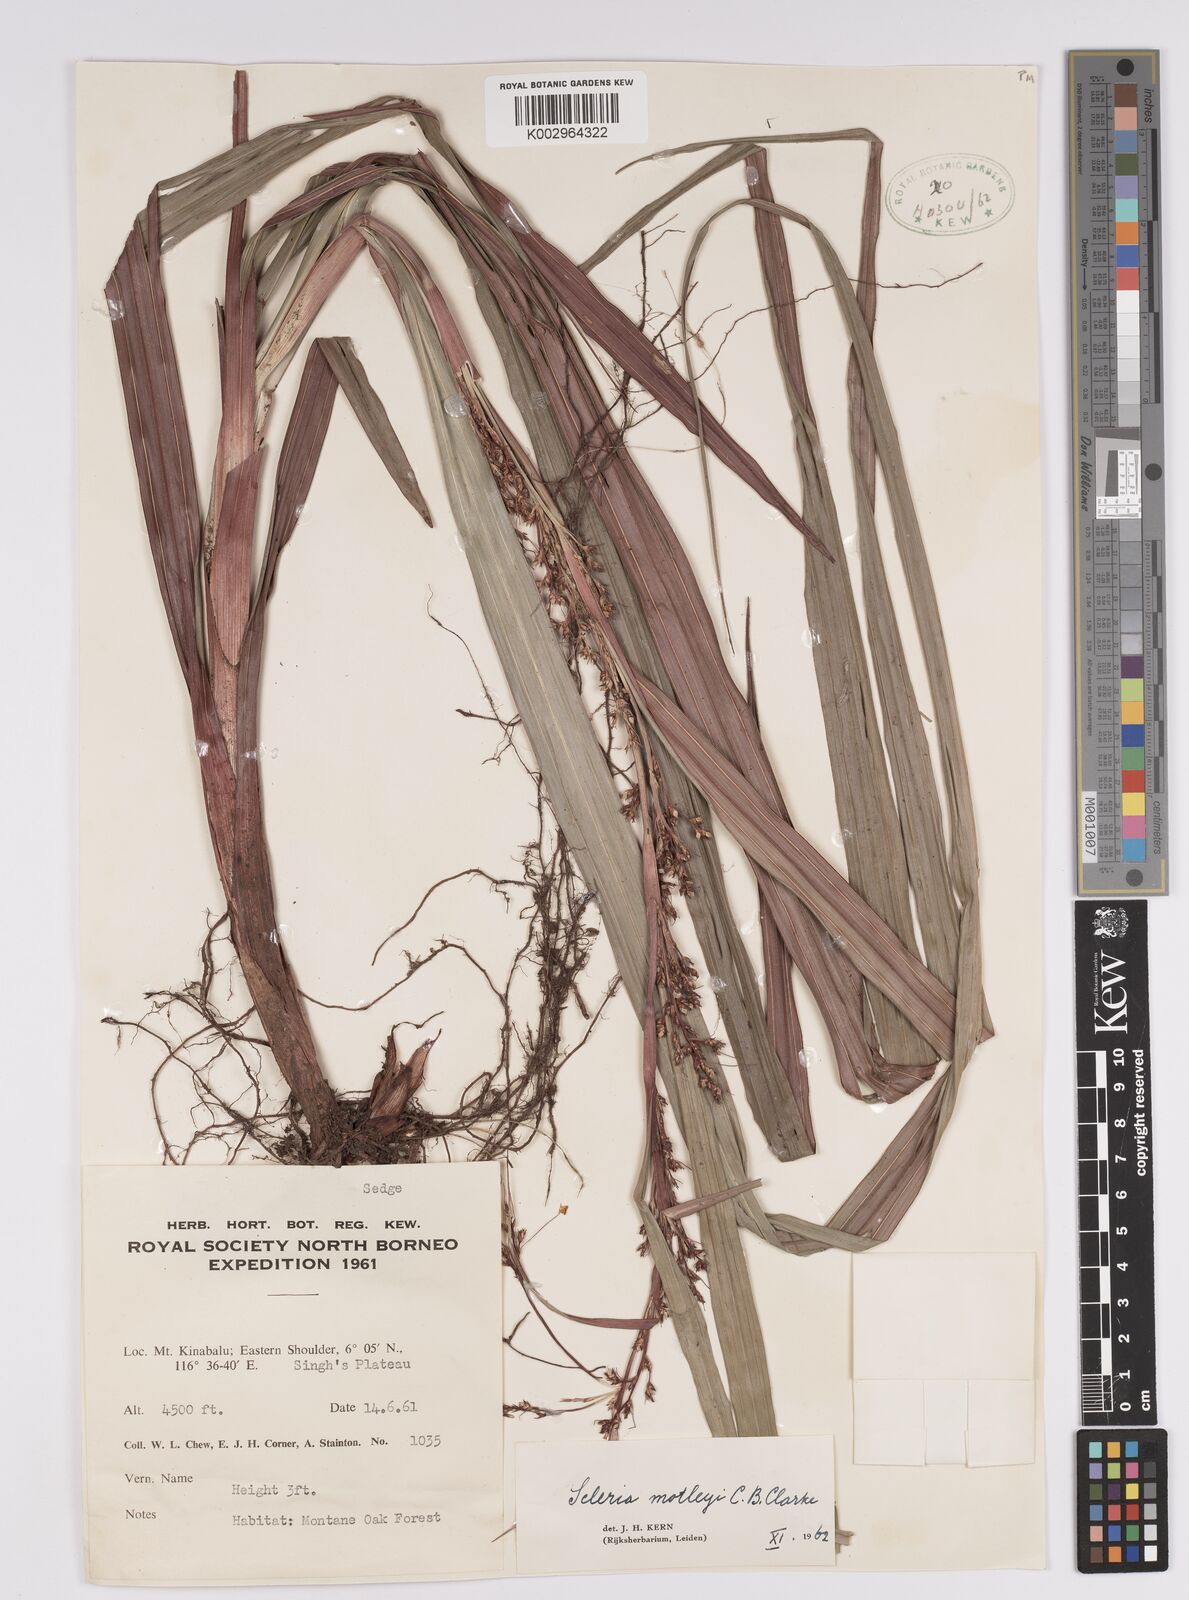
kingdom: Plantae
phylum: Tracheophyta
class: Liliopsida
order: Poales
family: Cyperaceae
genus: Scleria
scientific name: Scleria motleyi
